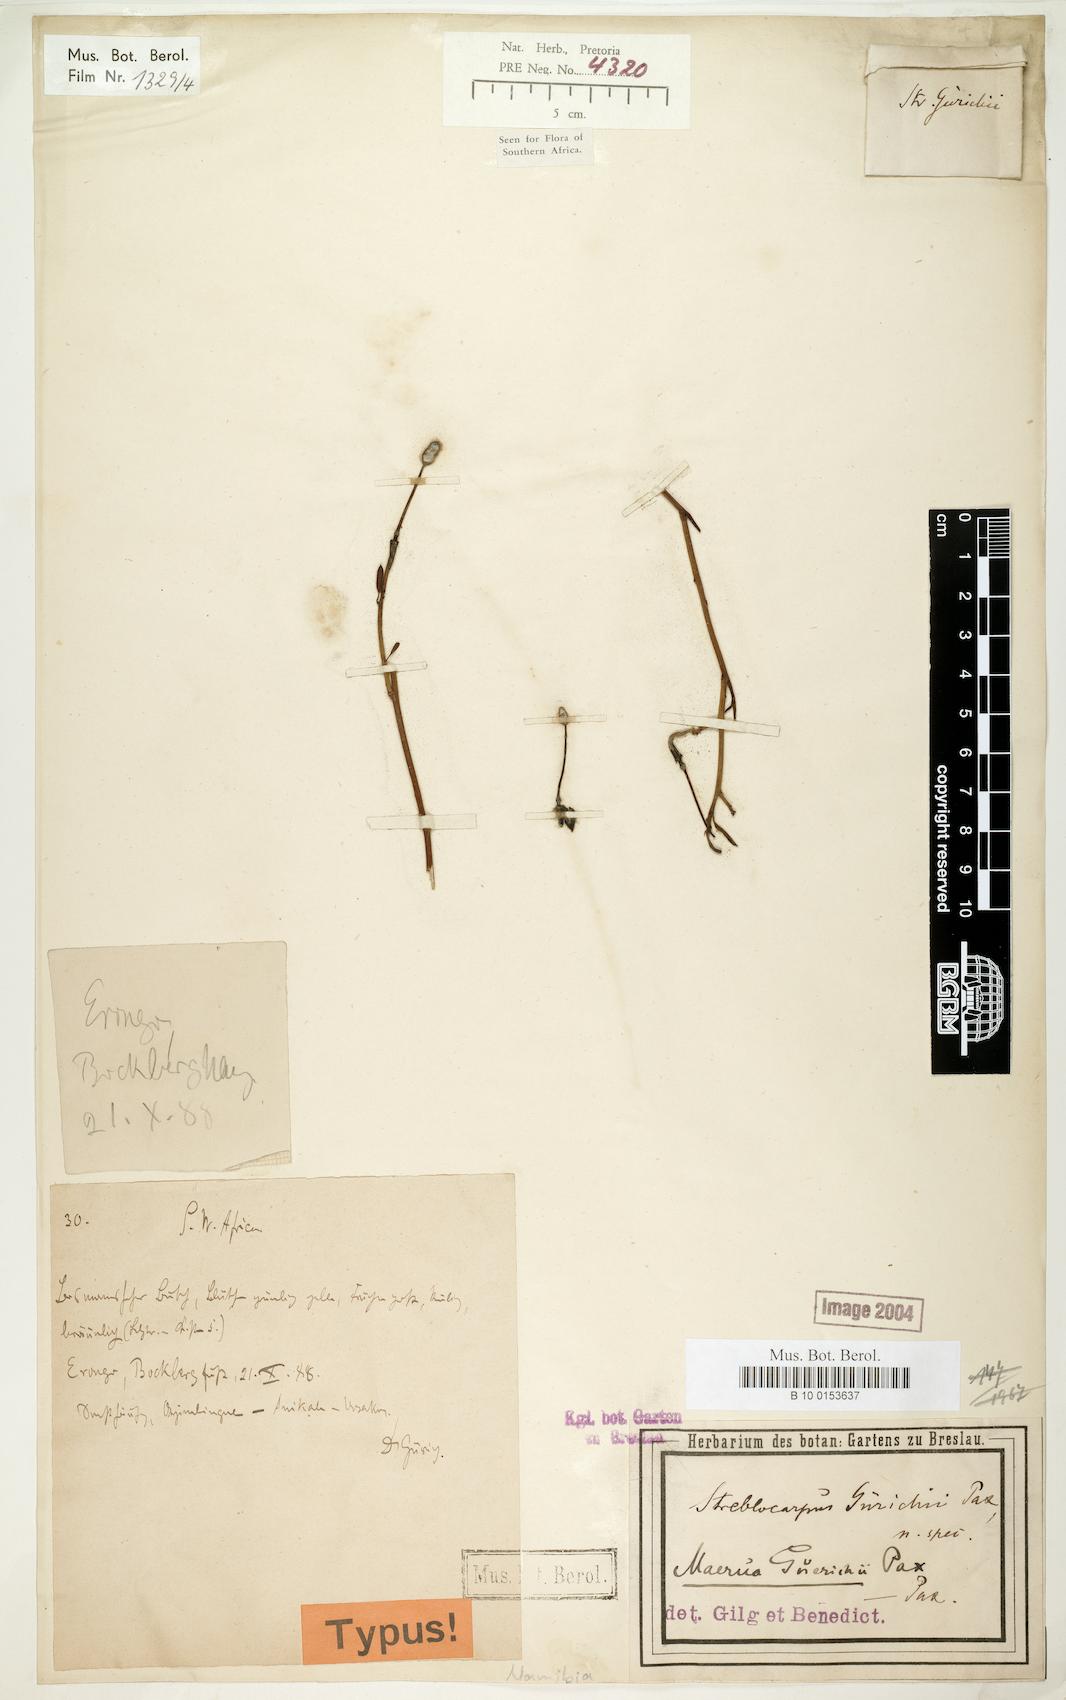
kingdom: Plantae
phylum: Tracheophyta
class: Magnoliopsida
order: Brassicales
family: Capparaceae
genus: Maerua
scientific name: Maerua juncea
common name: Rough-skinned bush cherry
